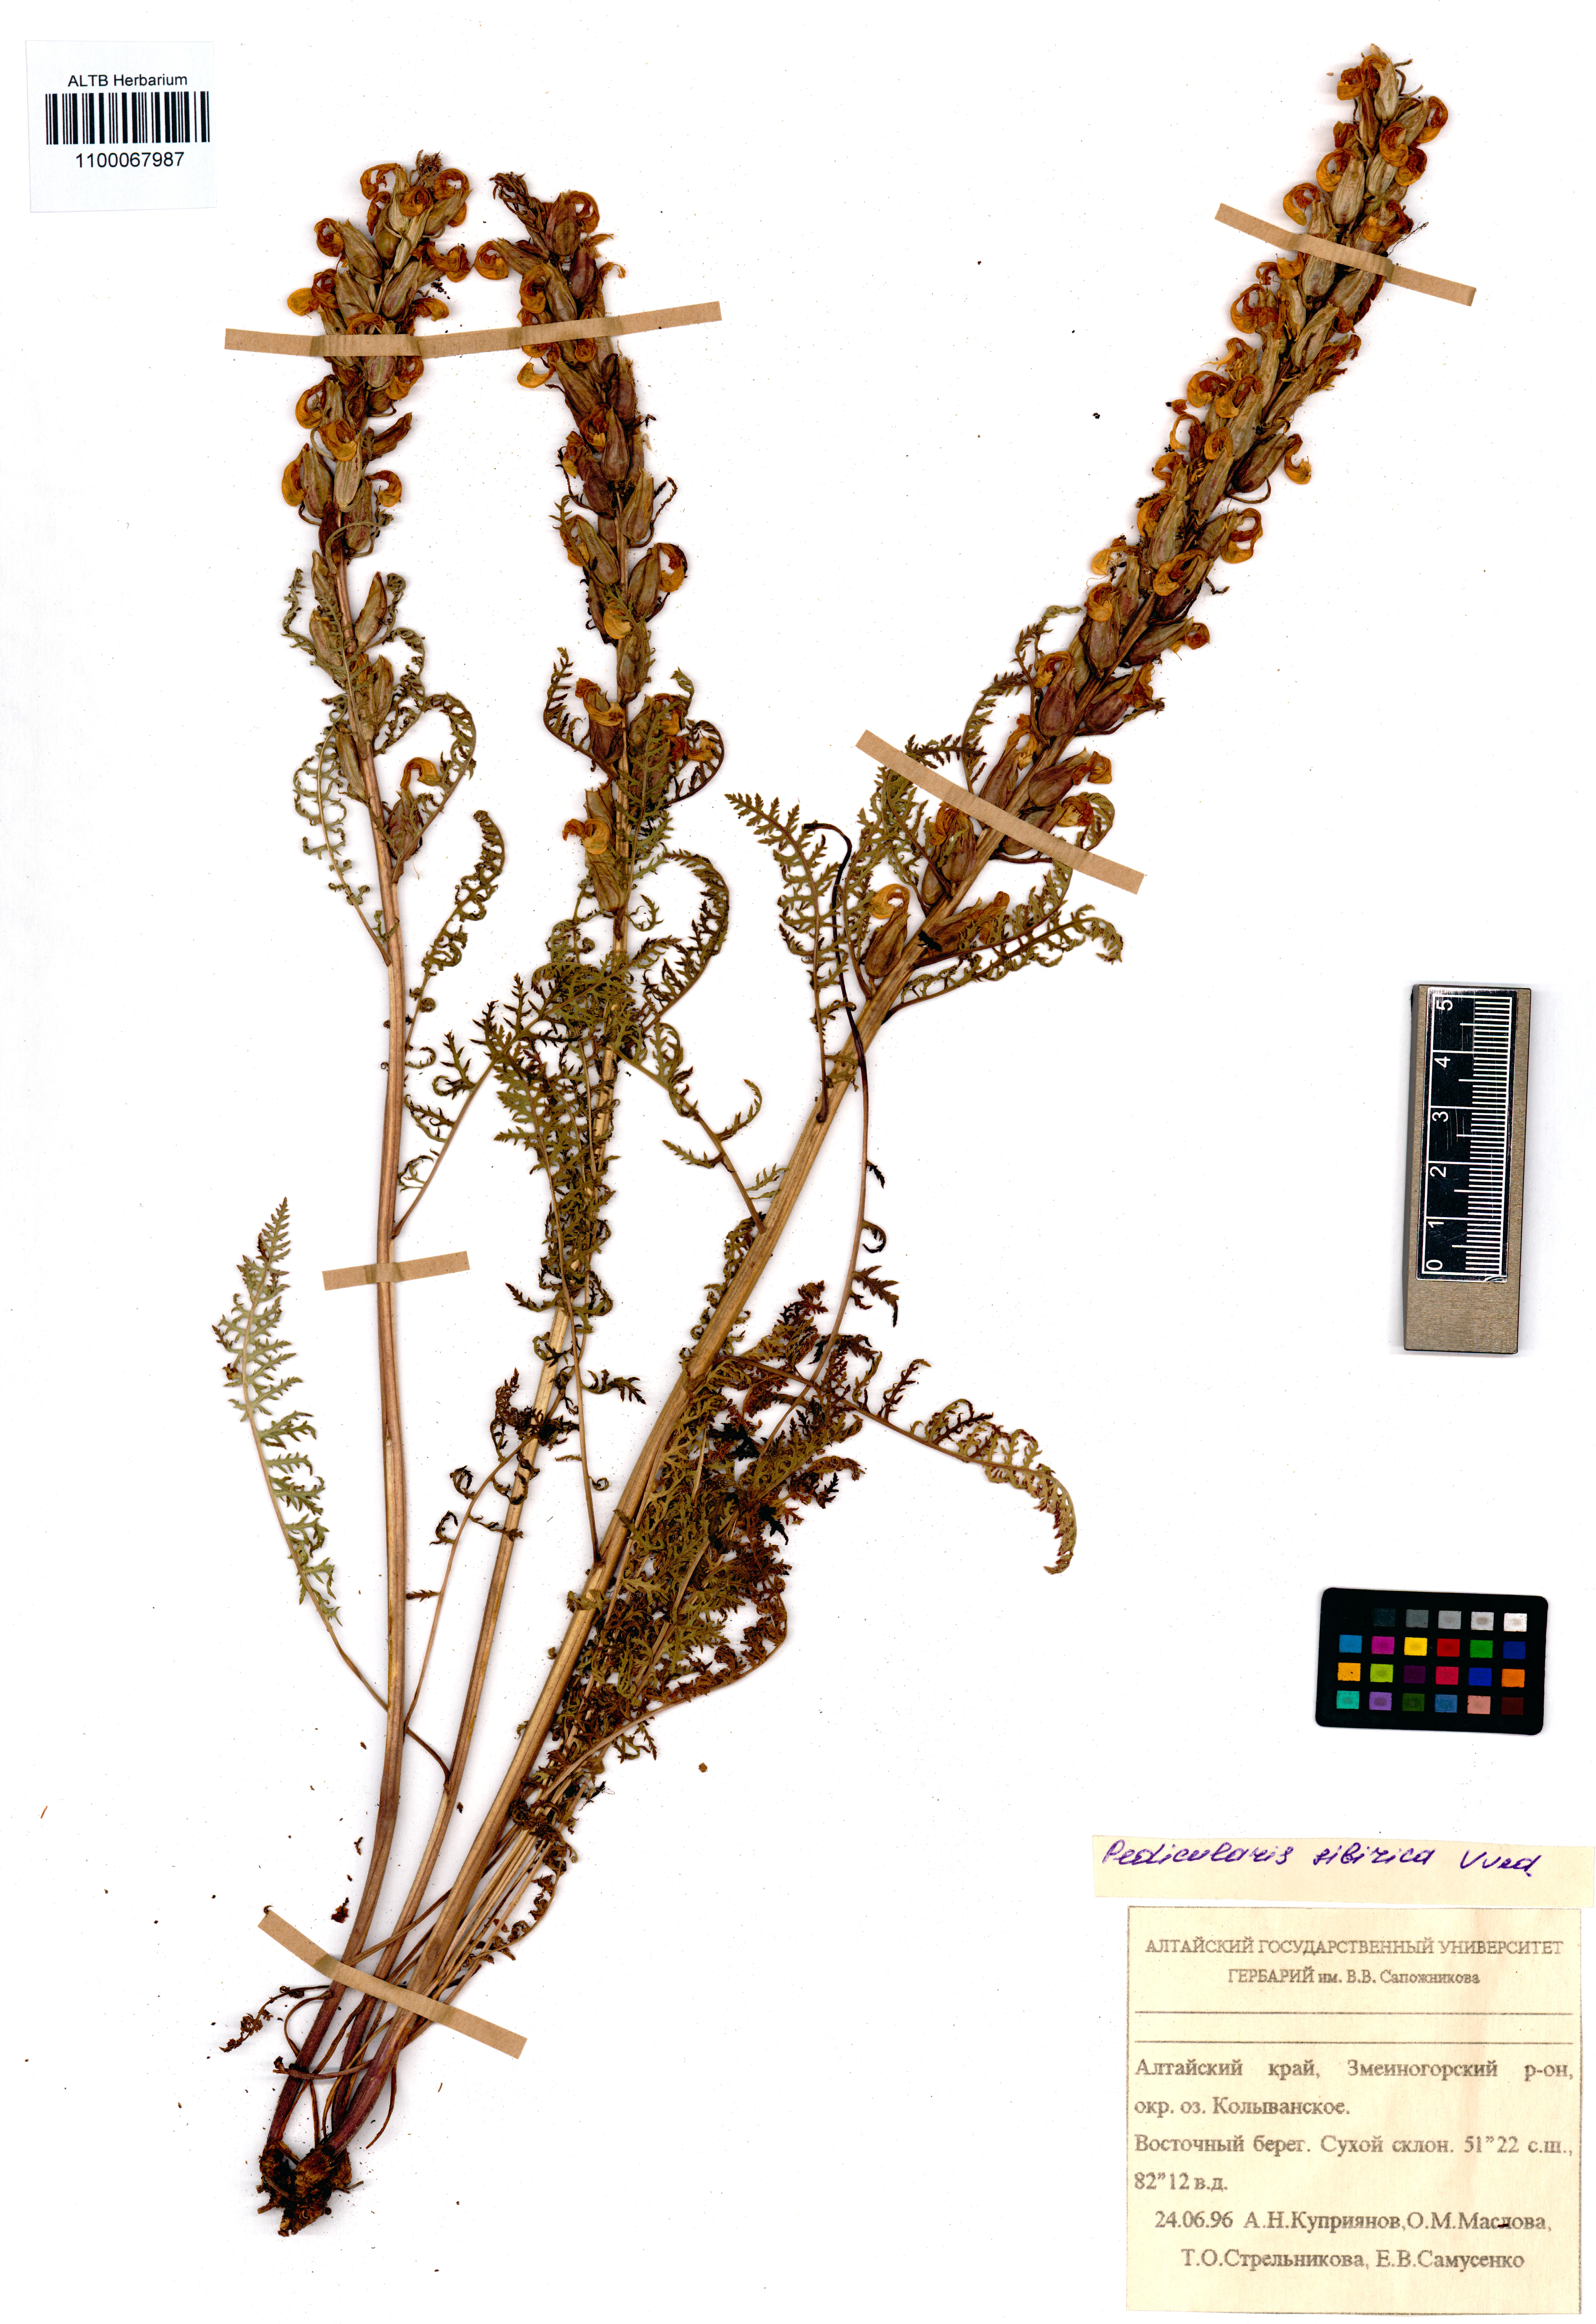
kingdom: Plantae
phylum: Tracheophyta
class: Magnoliopsida
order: Lamiales
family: Orobanchaceae
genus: Pedicularis
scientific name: Pedicularis sibirica
